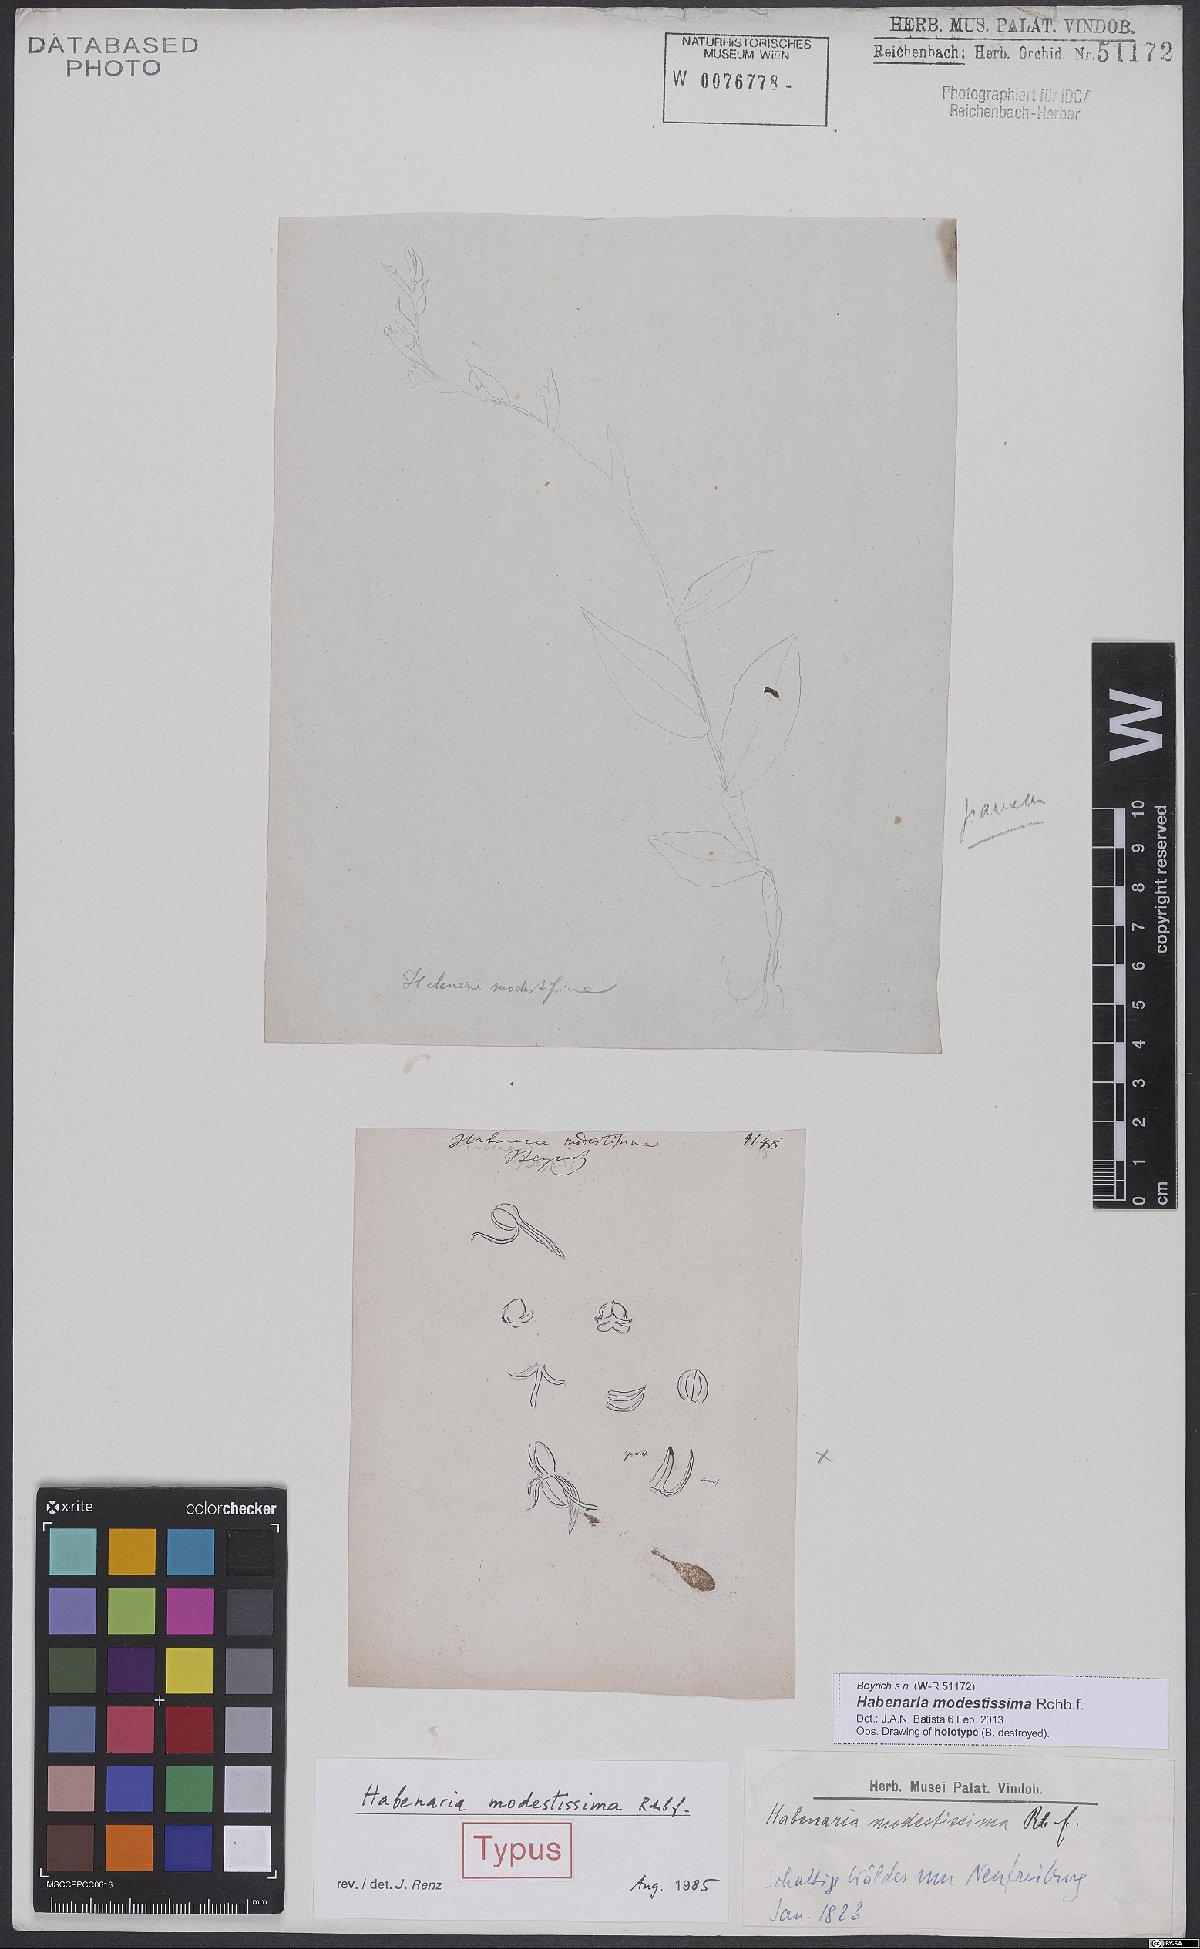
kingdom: Plantae
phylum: Tracheophyta
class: Liliopsida
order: Asparagales
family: Orchidaceae
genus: Habenaria
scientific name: Habenaria modestissima
